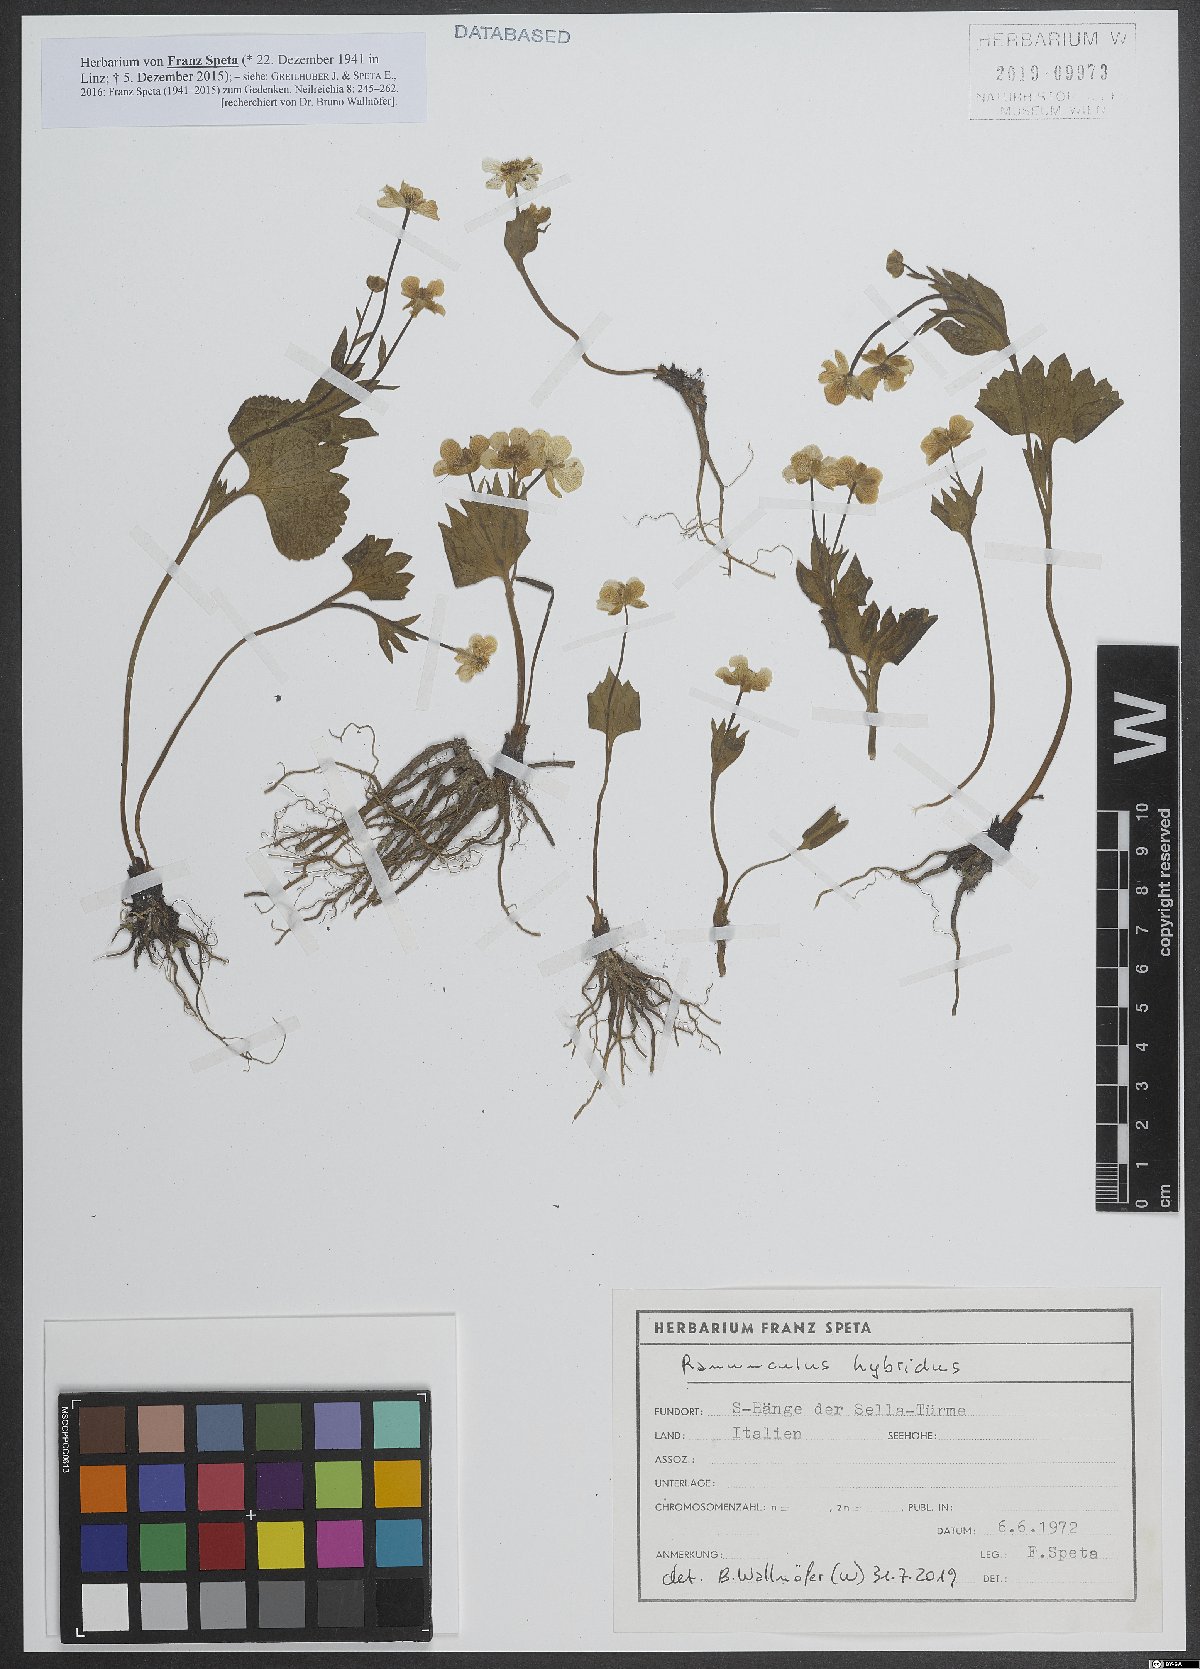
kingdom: Plantae
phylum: Tracheophyta
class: Magnoliopsida
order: Ranunculales
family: Ranunculaceae
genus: Ranunculus
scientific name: Ranunculus hybridus
